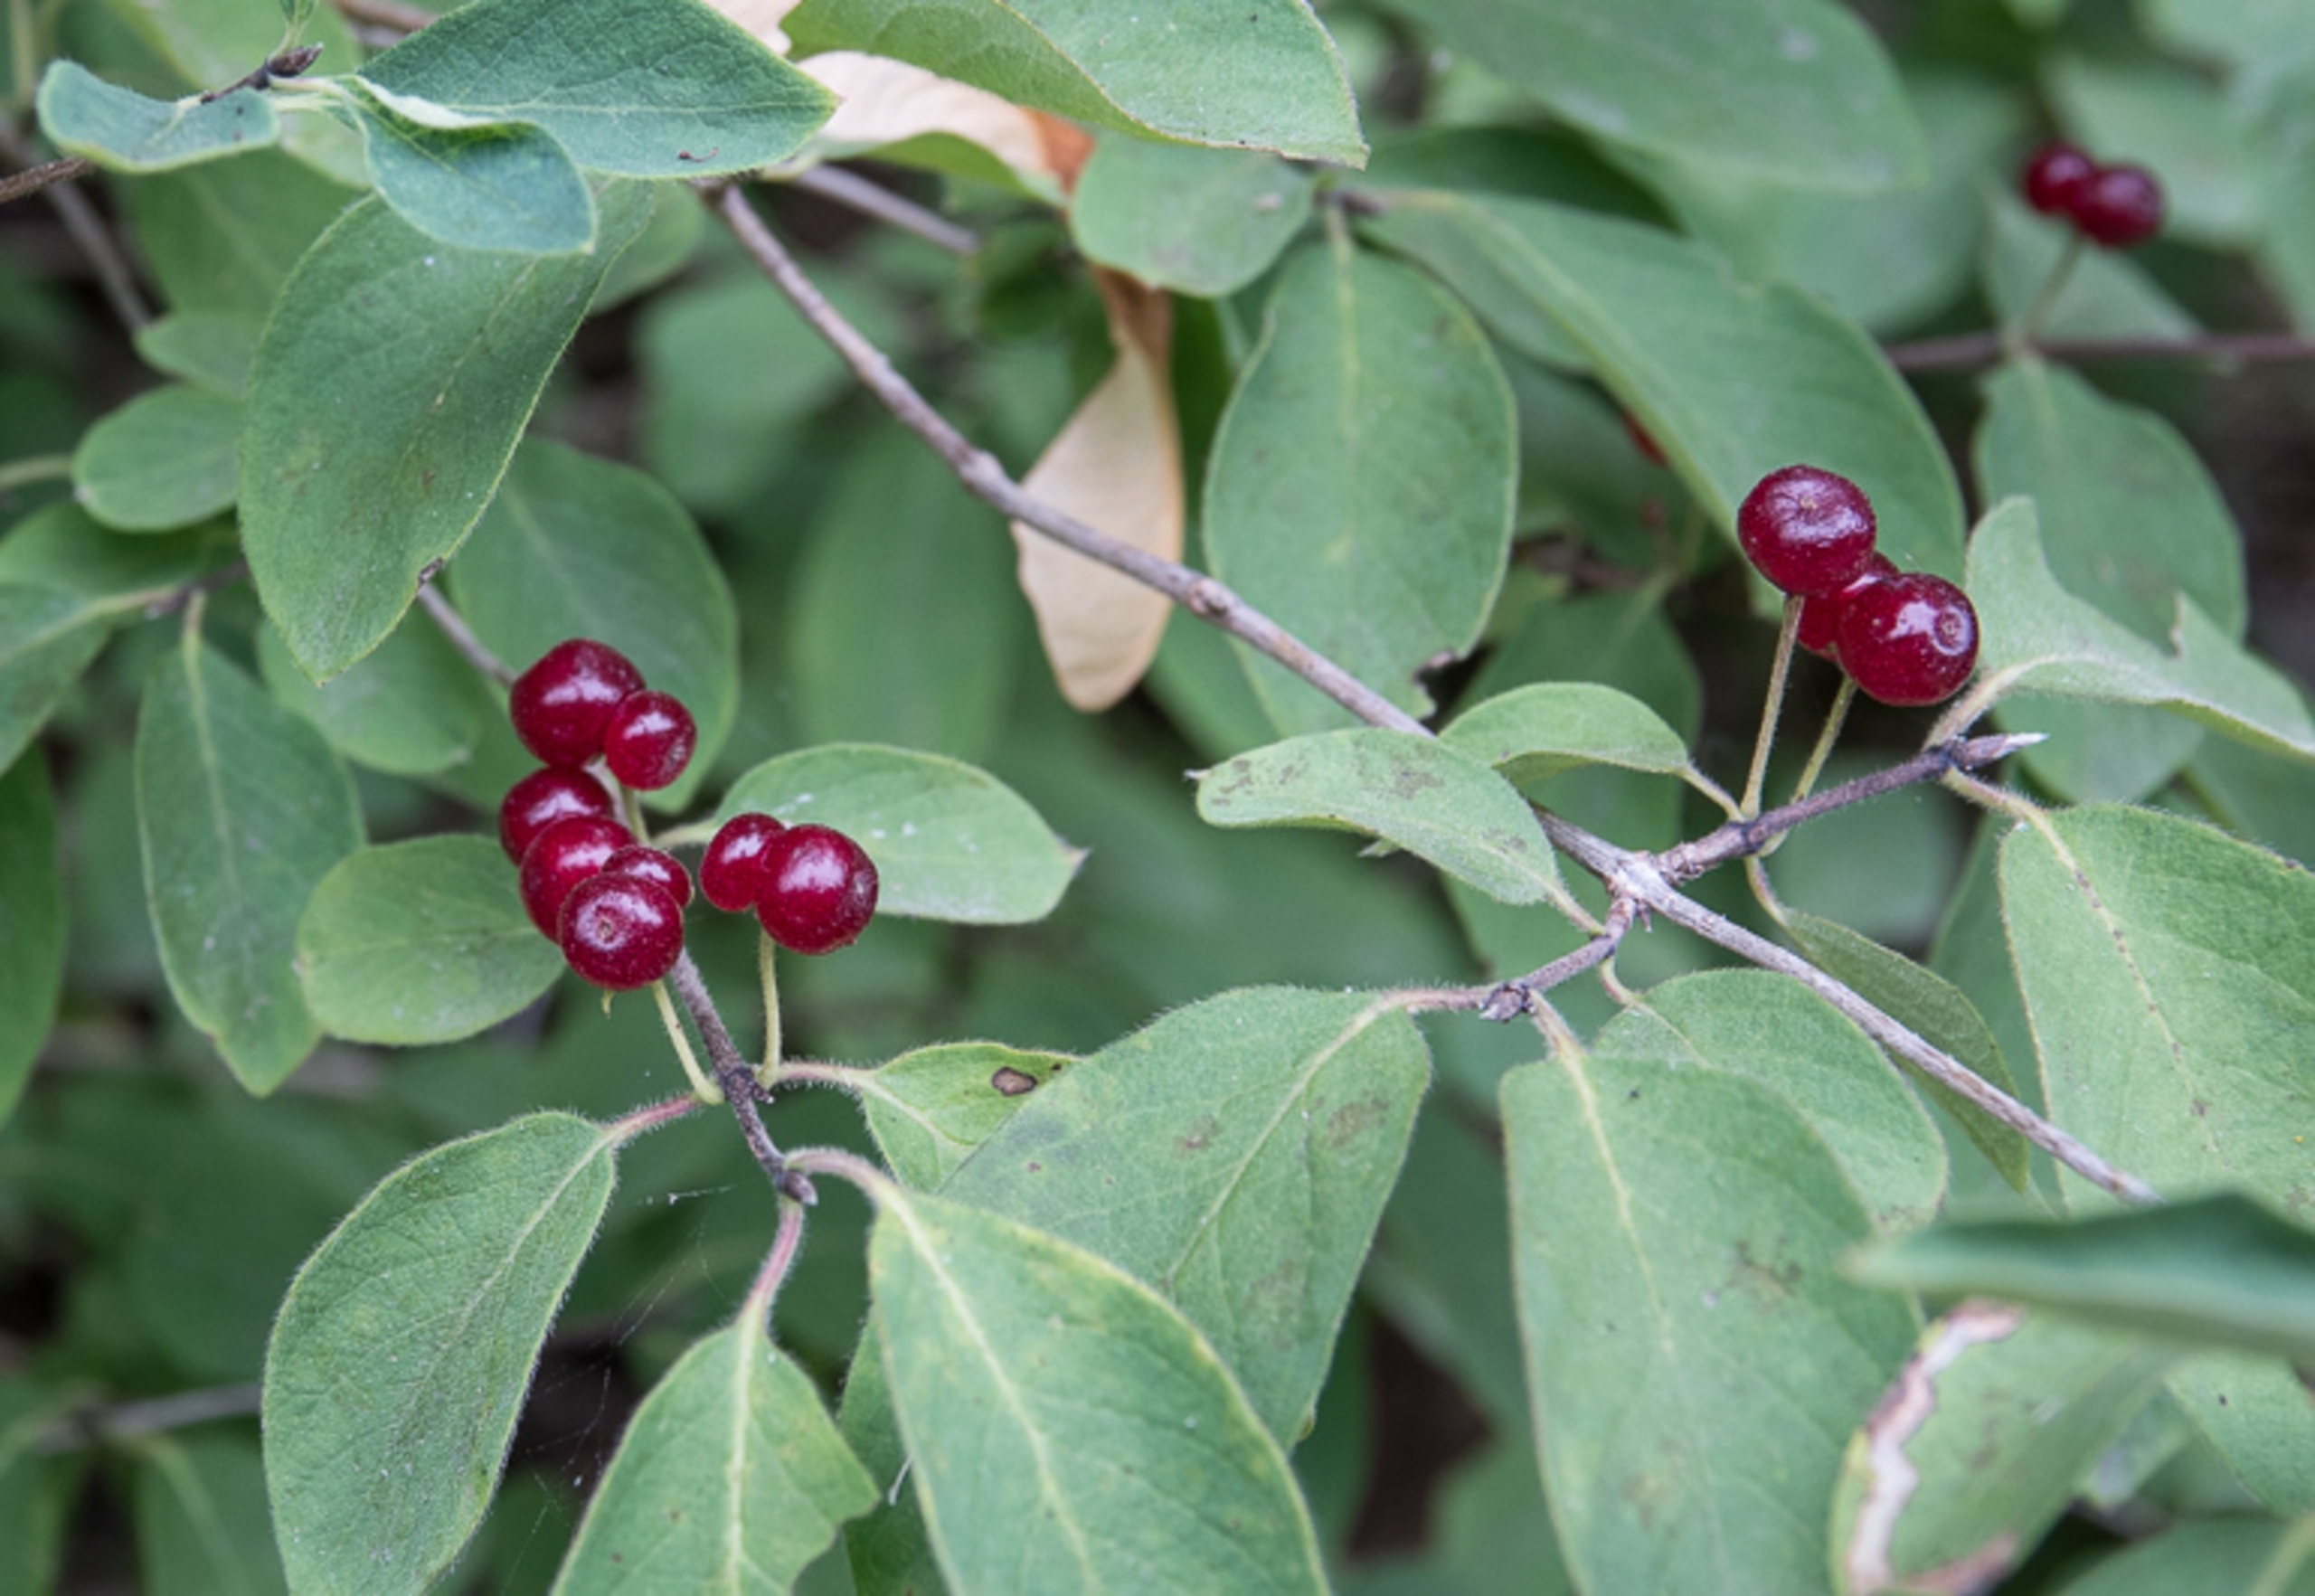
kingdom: Plantae
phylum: Tracheophyta
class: Magnoliopsida
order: Dipsacales
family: Caprifoliaceae
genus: Lonicera
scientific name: Lonicera xylosteum
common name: Dunet gedeblad
